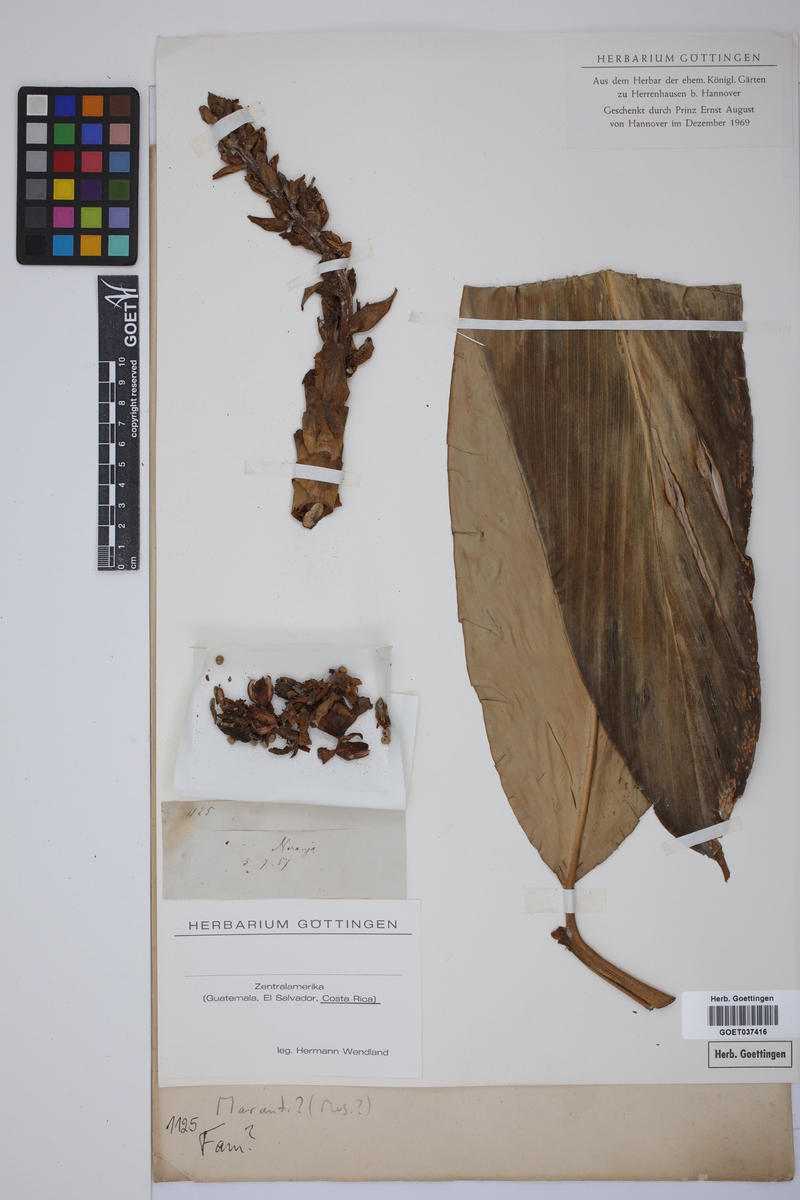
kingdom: Plantae
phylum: Tracheophyta
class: Liliopsida
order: Zingiberales
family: Marantaceae
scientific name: Marantaceae
